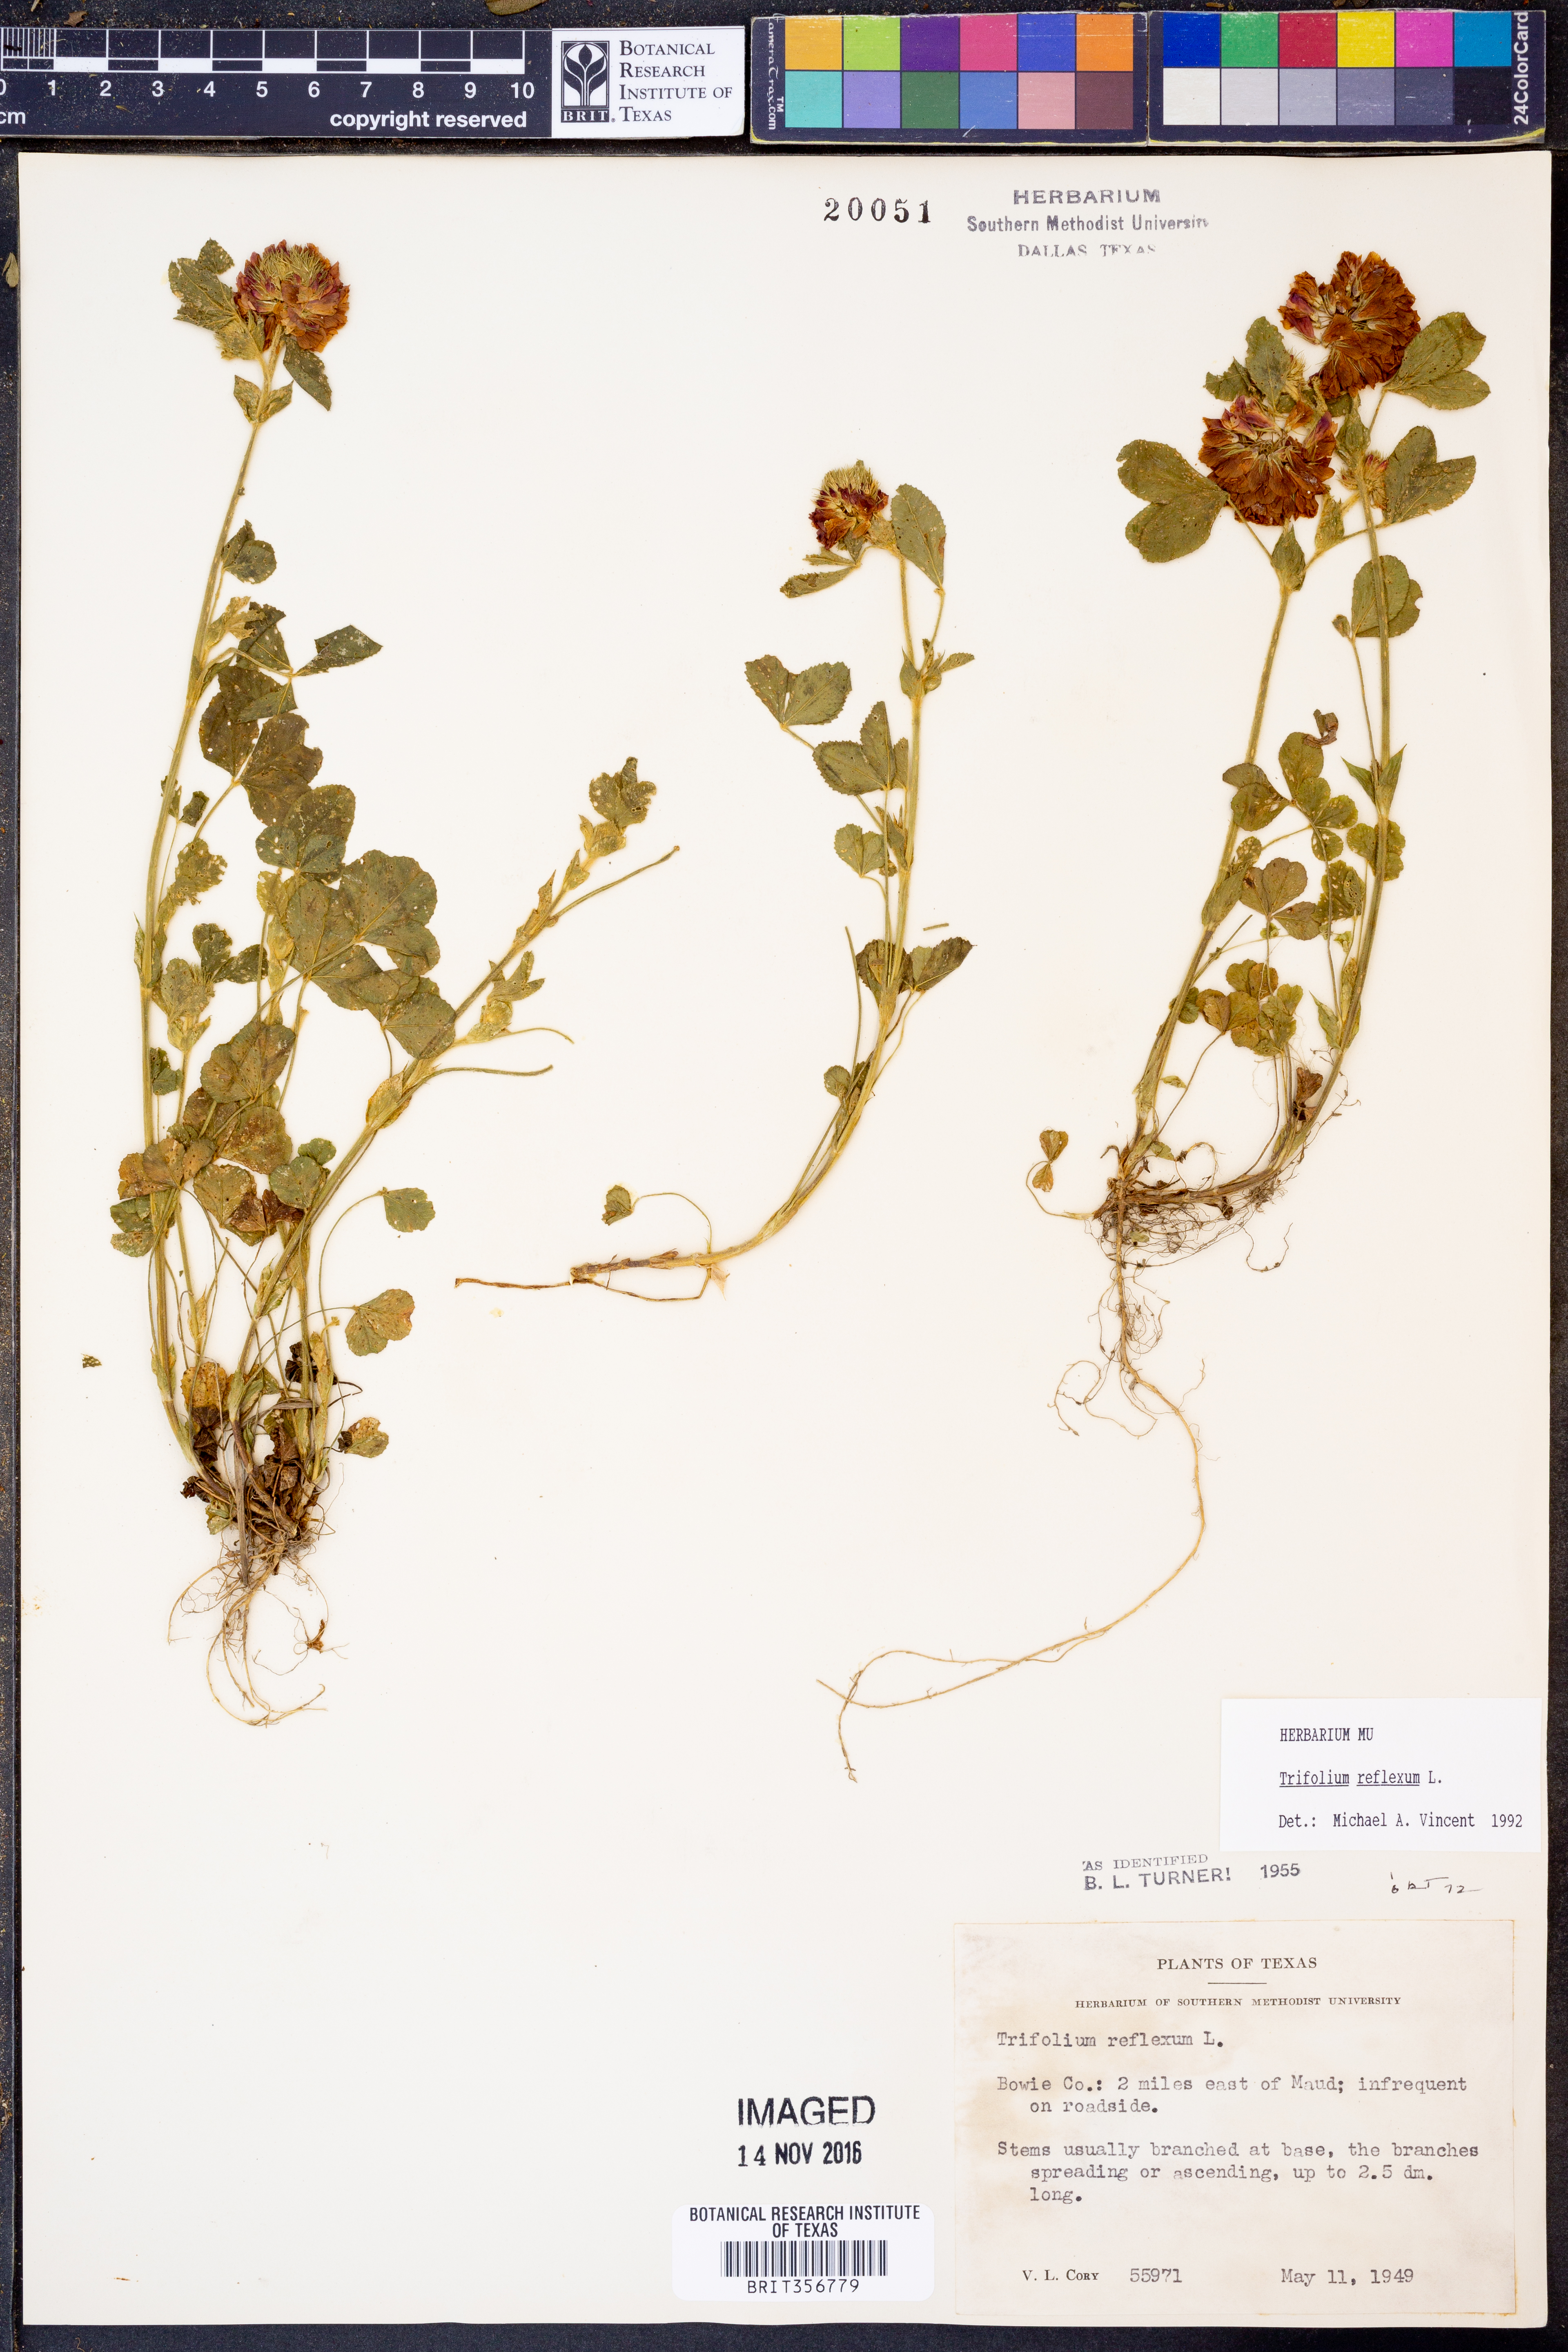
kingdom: Plantae
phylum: Tracheophyta
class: Magnoliopsida
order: Fabales
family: Fabaceae
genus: Trifolium
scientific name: Trifolium reflexum
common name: Buffalo clover
